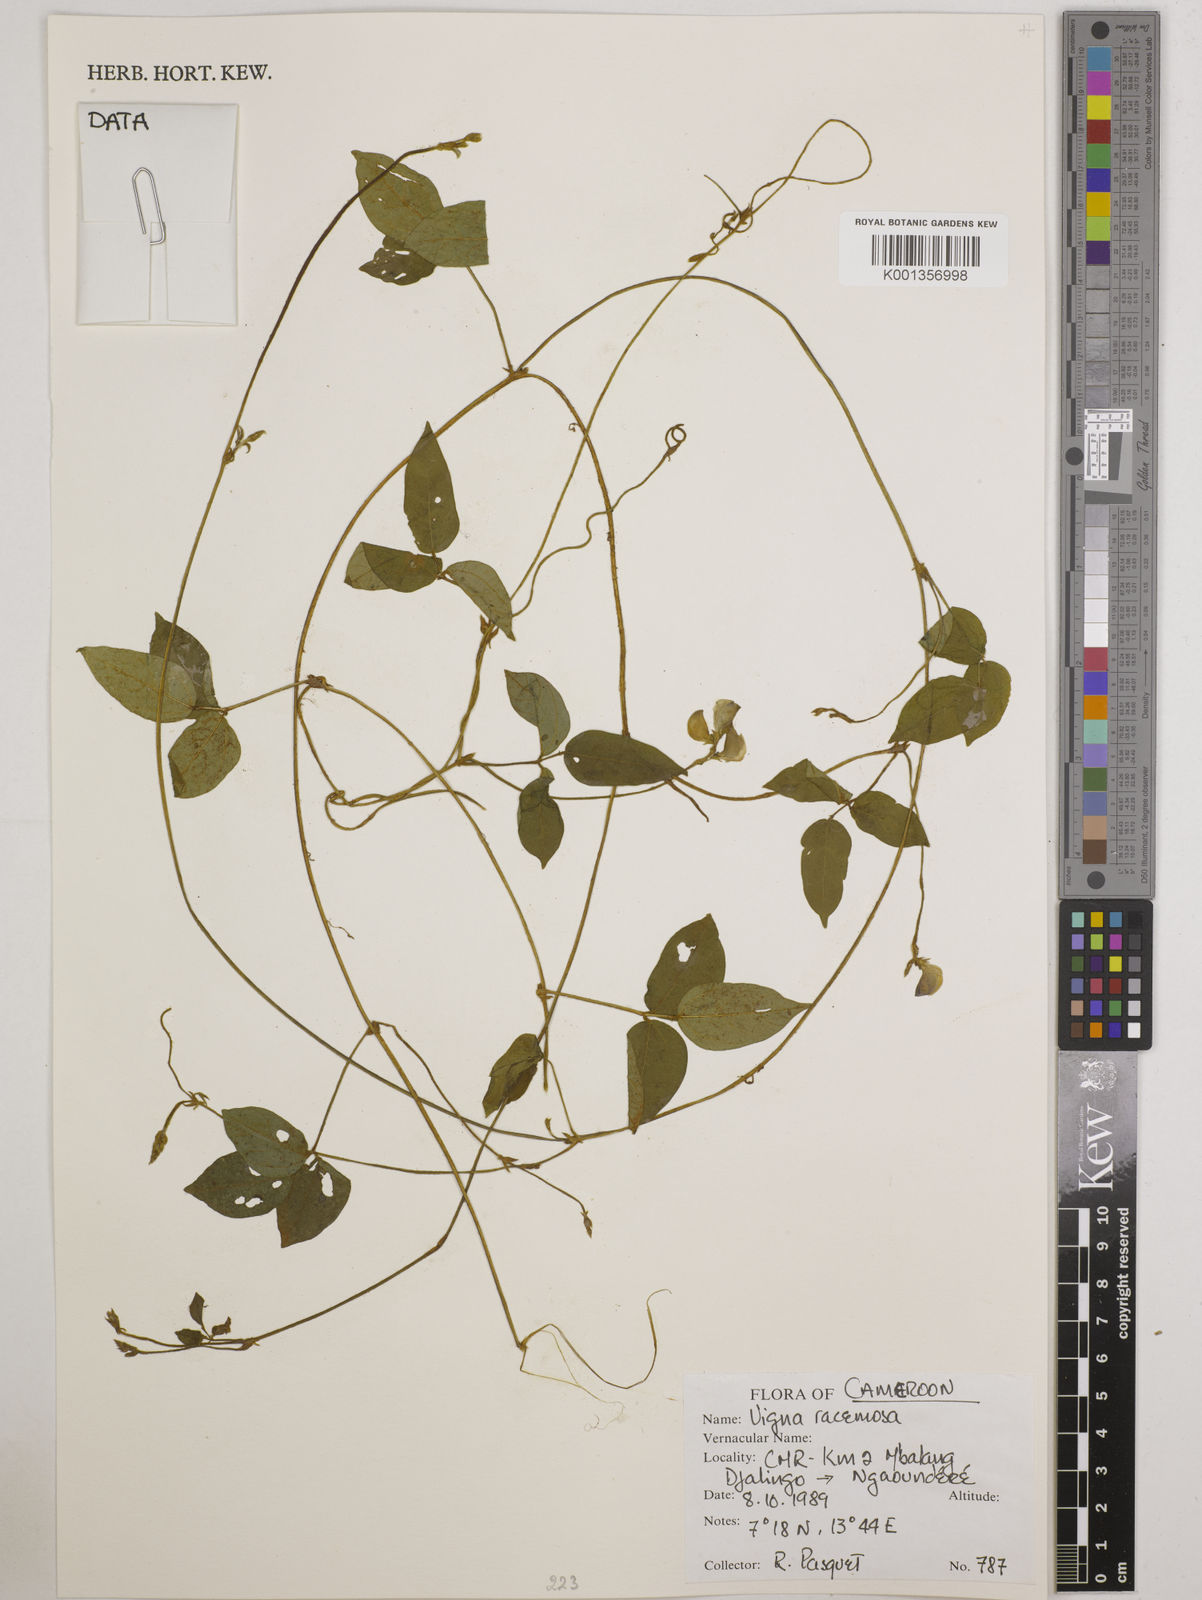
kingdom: Plantae
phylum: Tracheophyta
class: Magnoliopsida
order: Fabales
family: Fabaceae
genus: Vigna
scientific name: Vigna racemosa
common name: Beans not eaten
